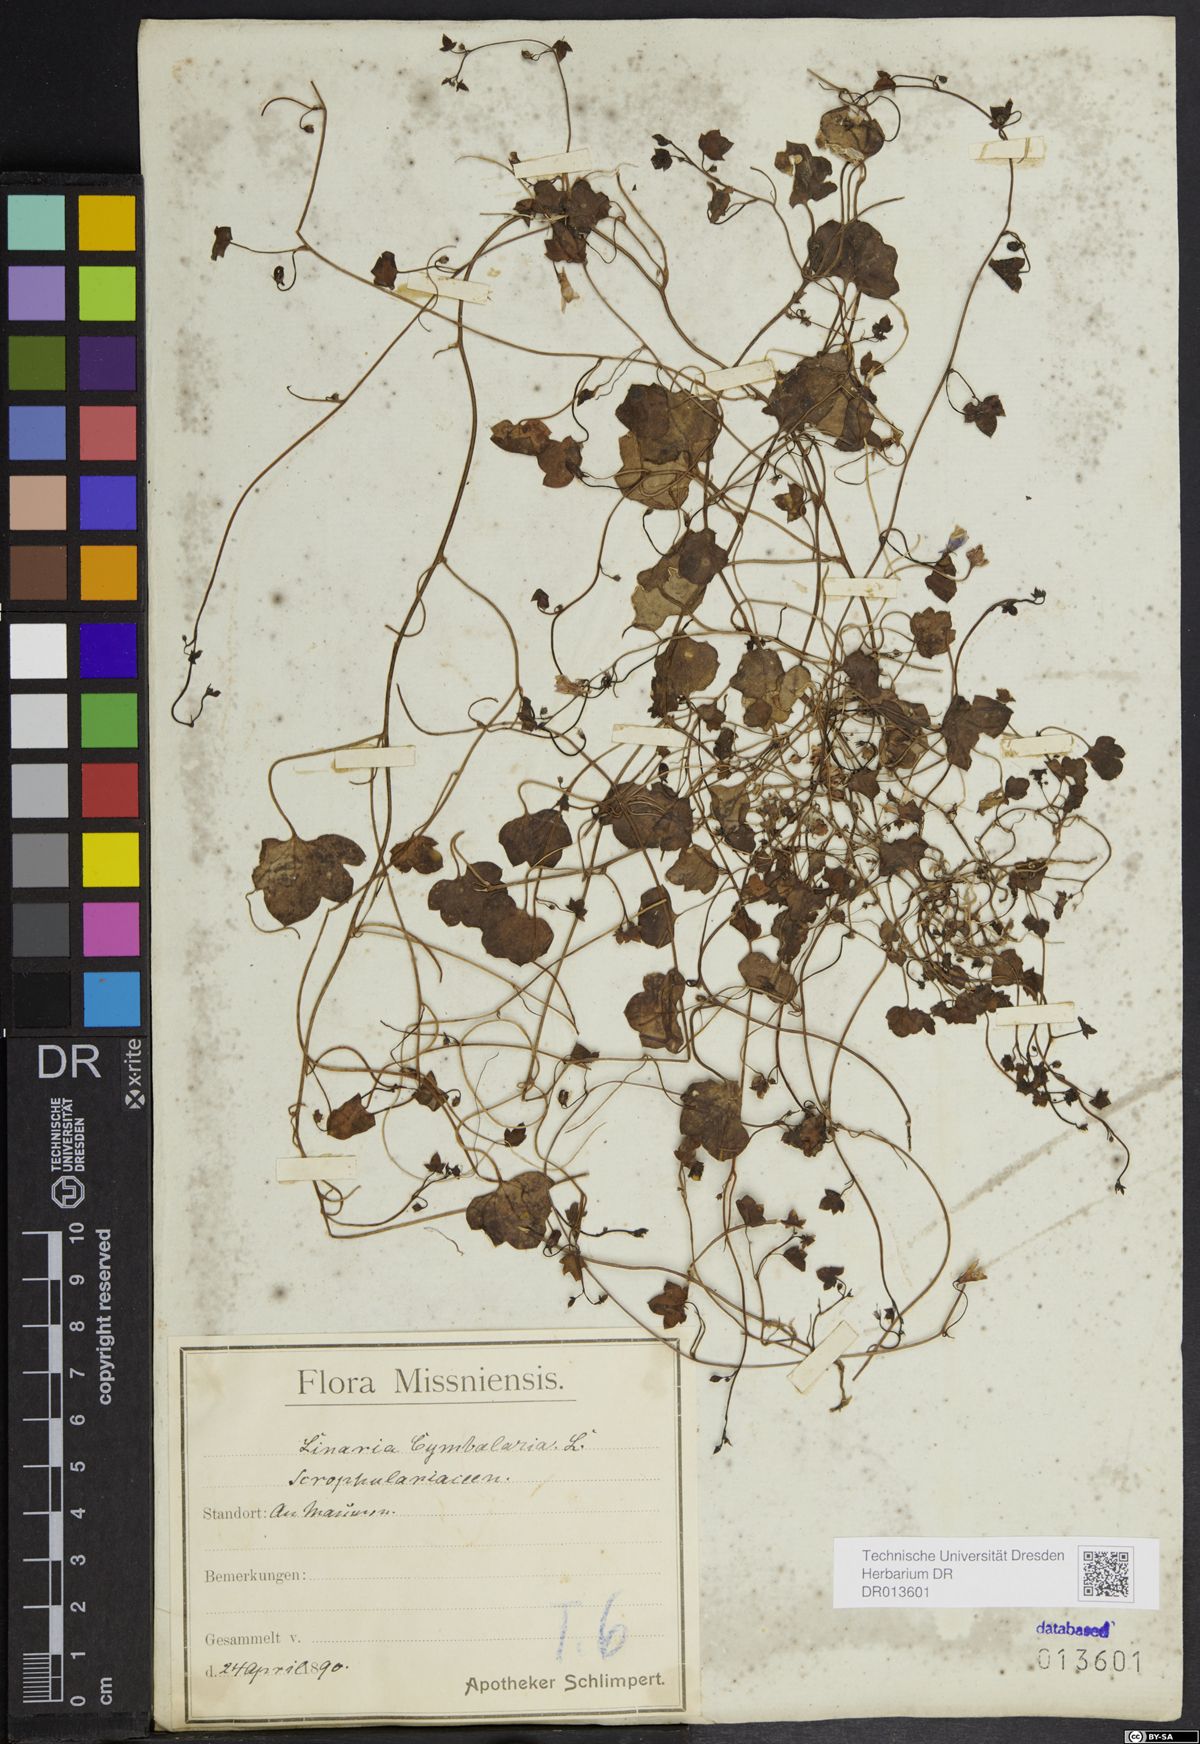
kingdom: Plantae
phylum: Tracheophyta
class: Magnoliopsida
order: Lamiales
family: Plantaginaceae
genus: Cymbalaria
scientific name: Cymbalaria muralis
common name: Ivy-leaved toadflax
